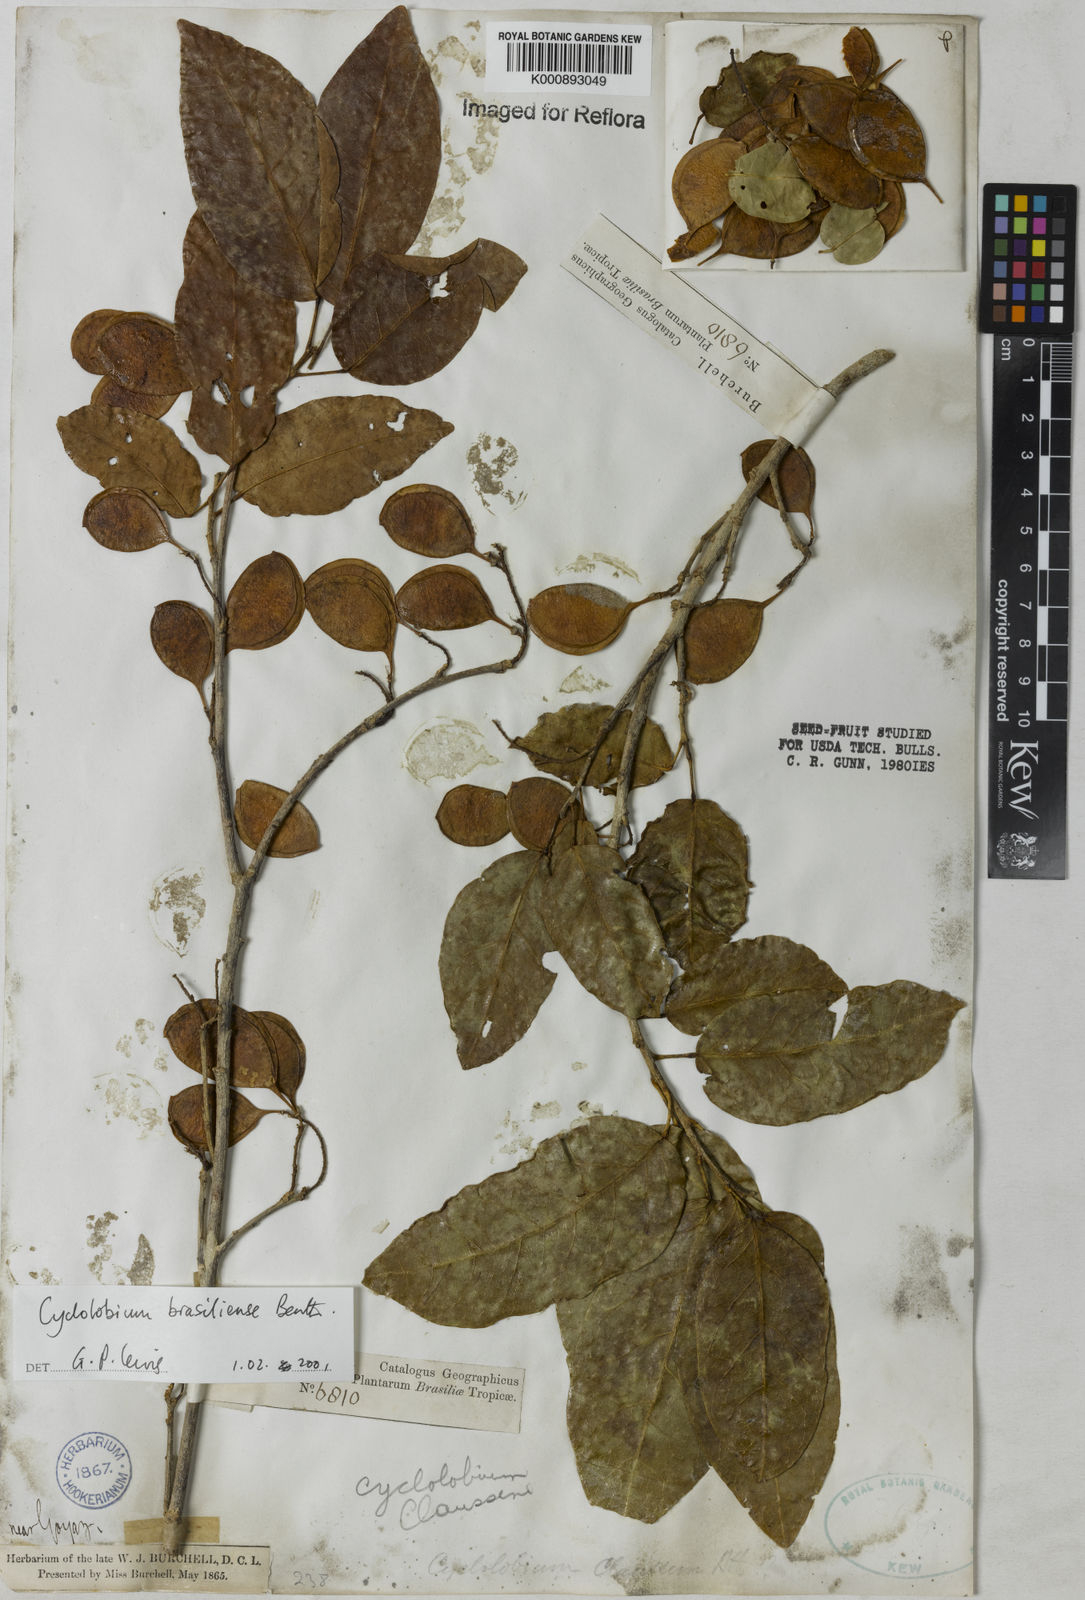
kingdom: Plantae
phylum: Tracheophyta
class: Magnoliopsida
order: Fabales
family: Fabaceae
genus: Cyclolobium
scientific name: Cyclolobium brasiliense
